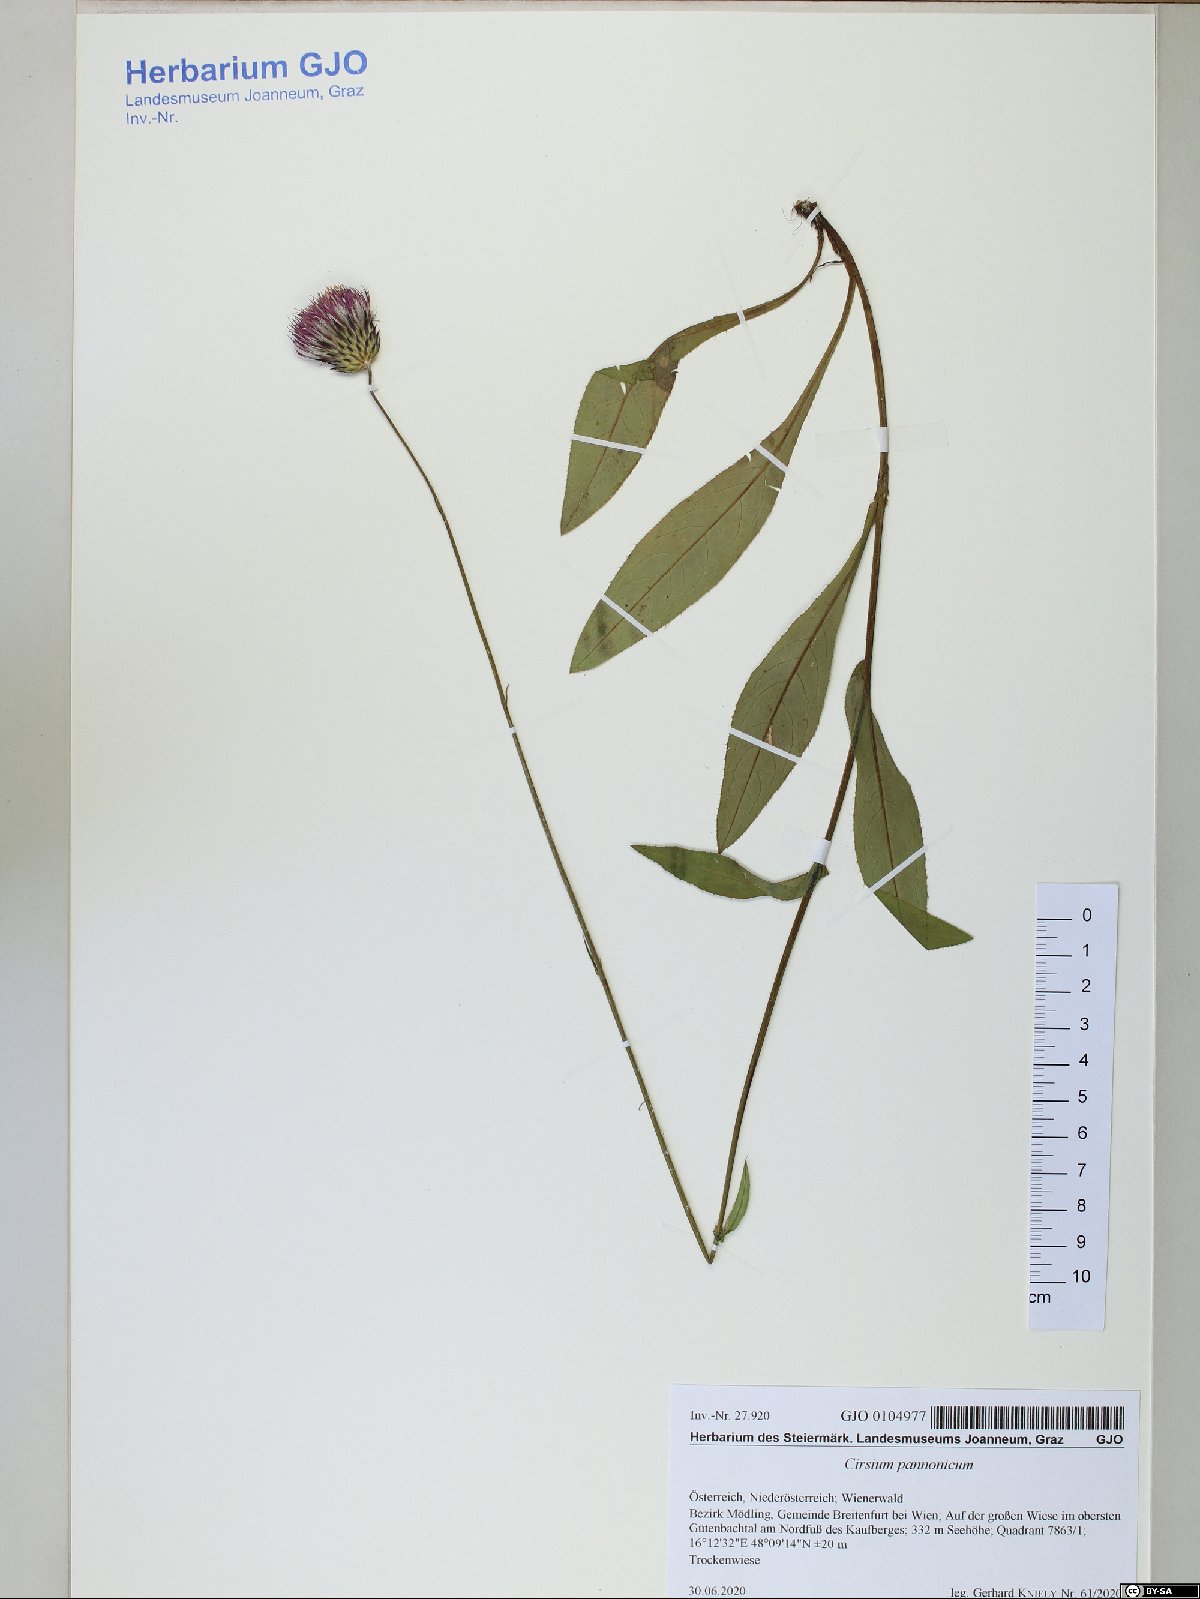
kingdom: Plantae
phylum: Tracheophyta
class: Magnoliopsida
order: Asterales
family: Asteraceae
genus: Cirsium
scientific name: Cirsium pannonicum
